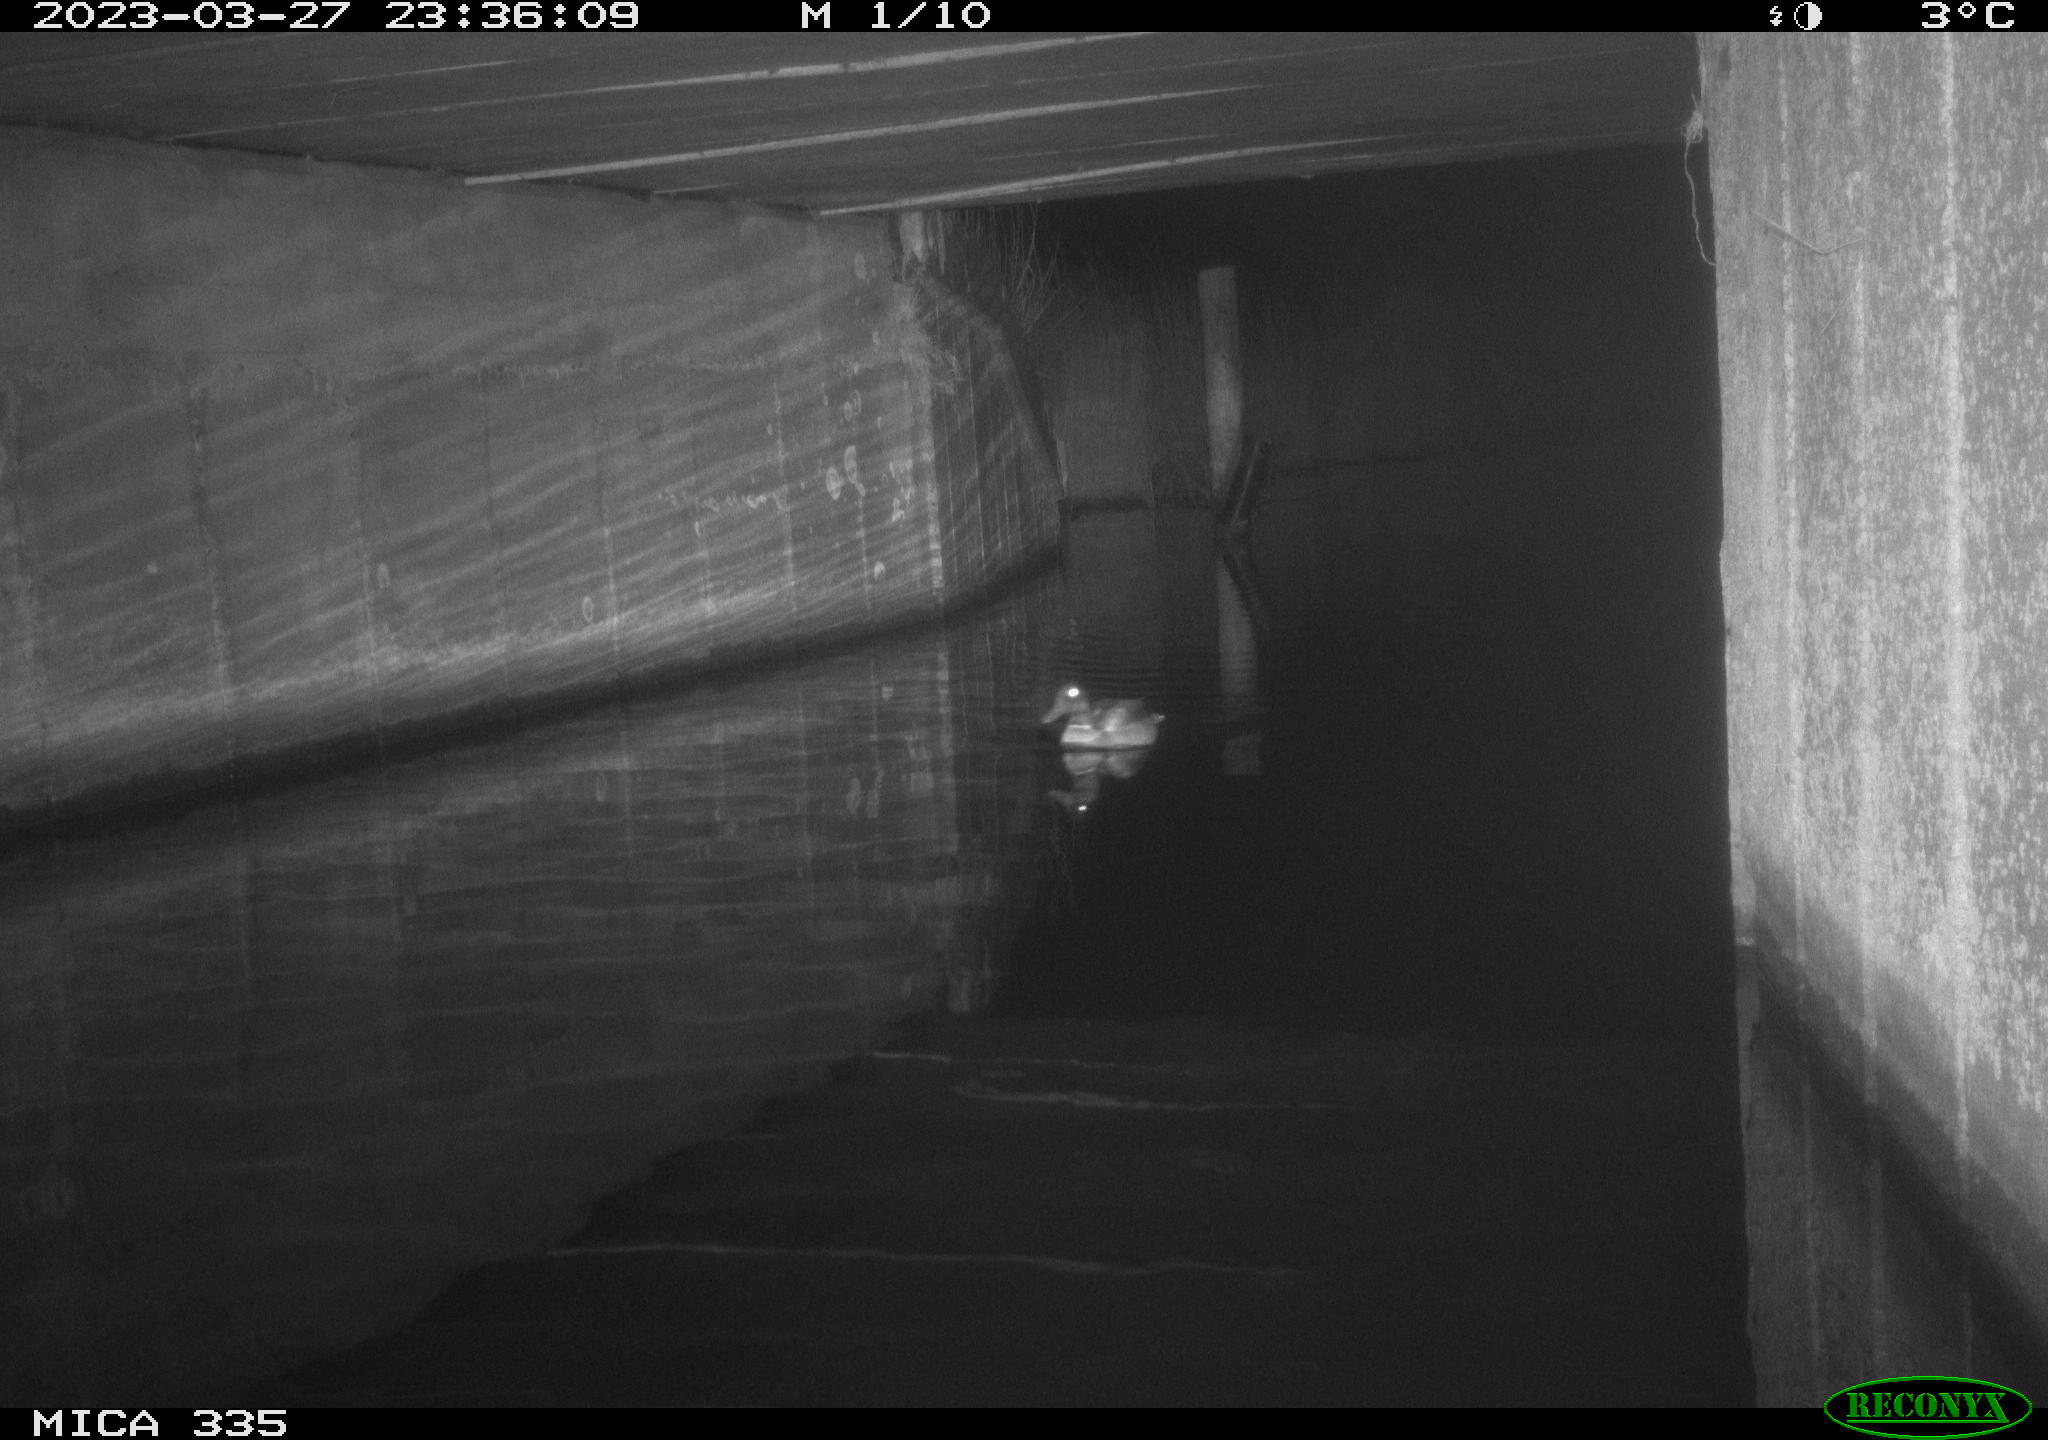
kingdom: Animalia
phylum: Chordata
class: Aves
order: Anseriformes
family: Anatidae
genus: Anas
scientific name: Anas
